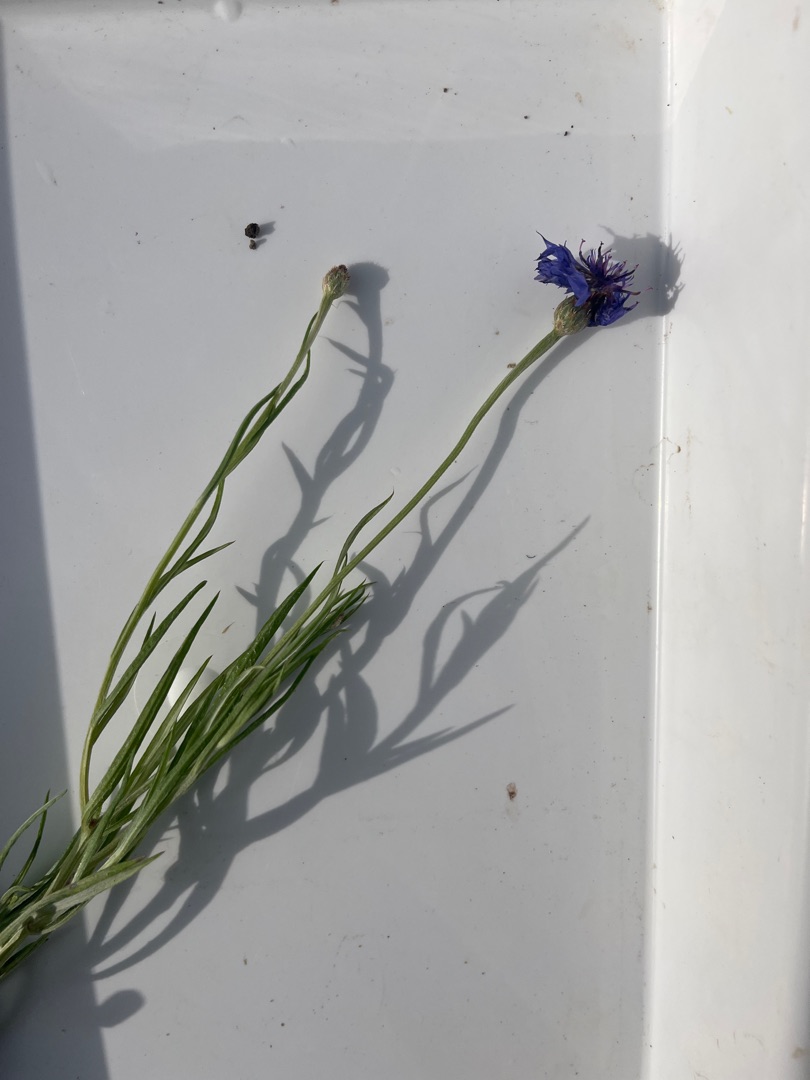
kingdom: Plantae
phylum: Tracheophyta
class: Magnoliopsida
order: Asterales
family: Asteraceae
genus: Centaurea
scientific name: Centaurea cyanus
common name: Kornblomst
